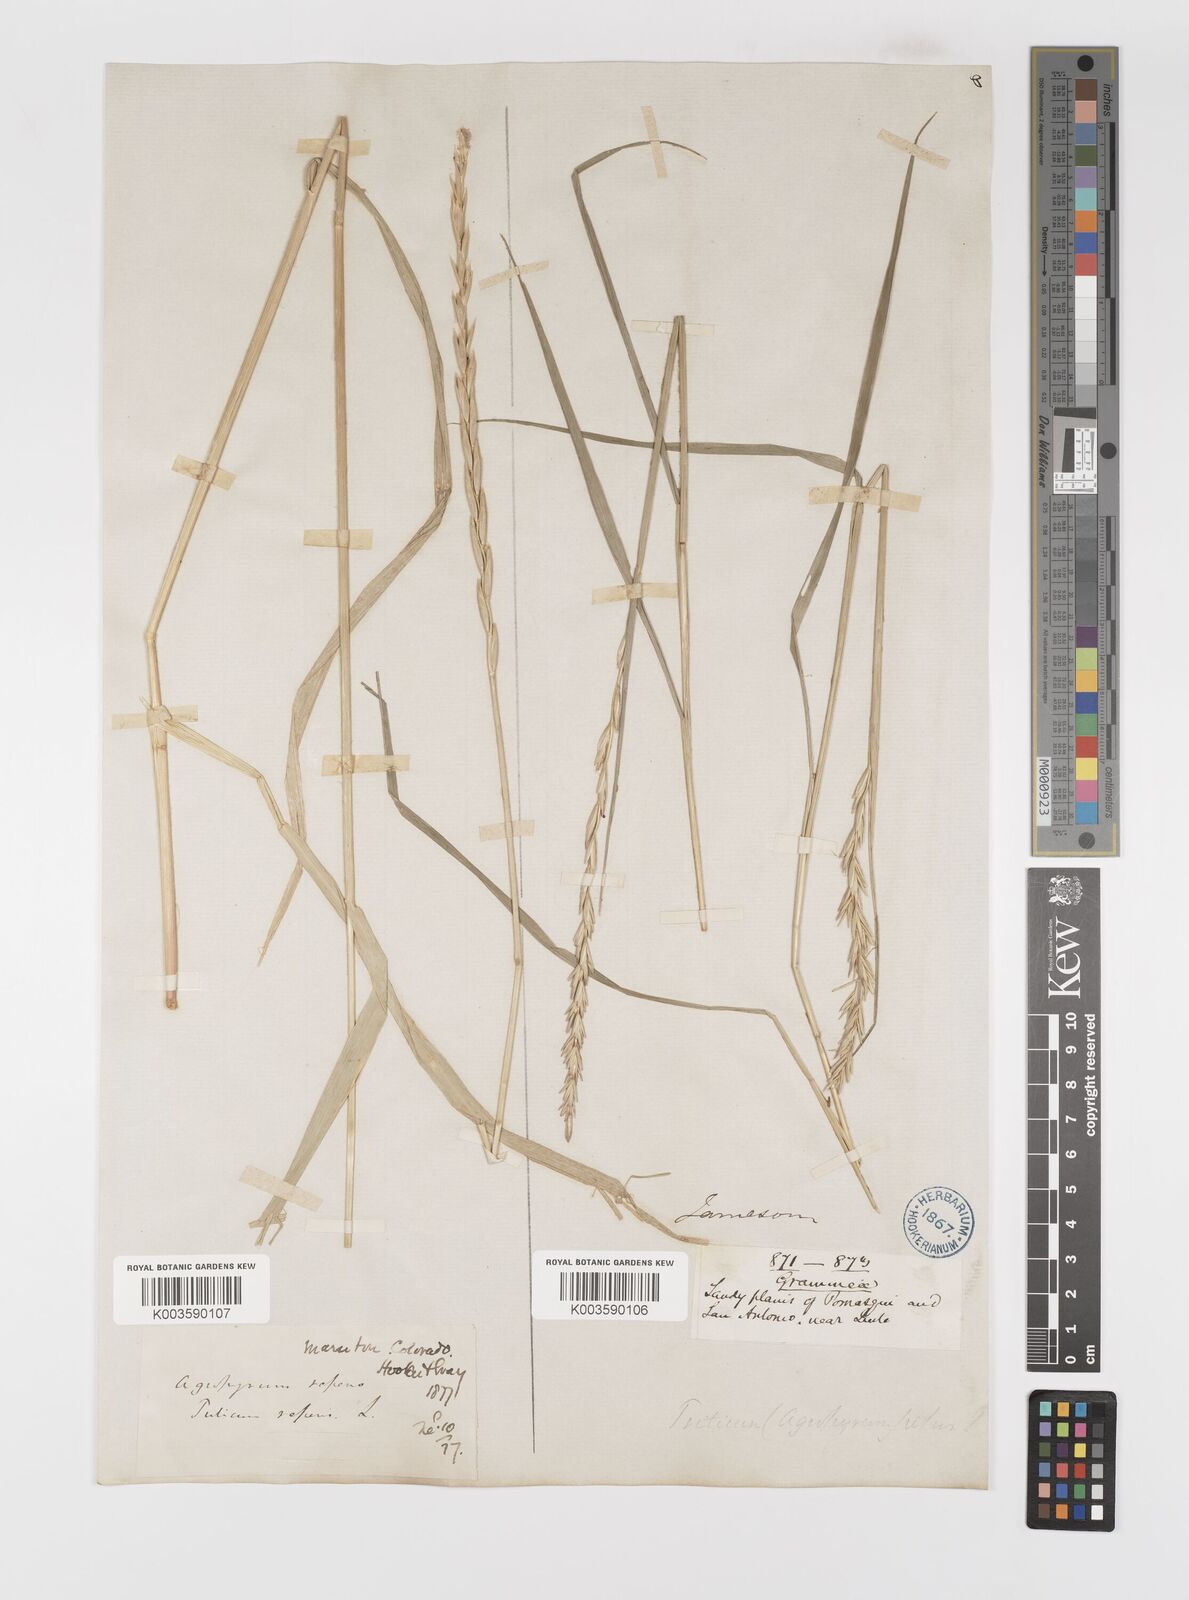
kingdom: Plantae
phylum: Tracheophyta
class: Liliopsida
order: Poales
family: Poaceae
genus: Elymus
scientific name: Elymus repens
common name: Quackgrass
